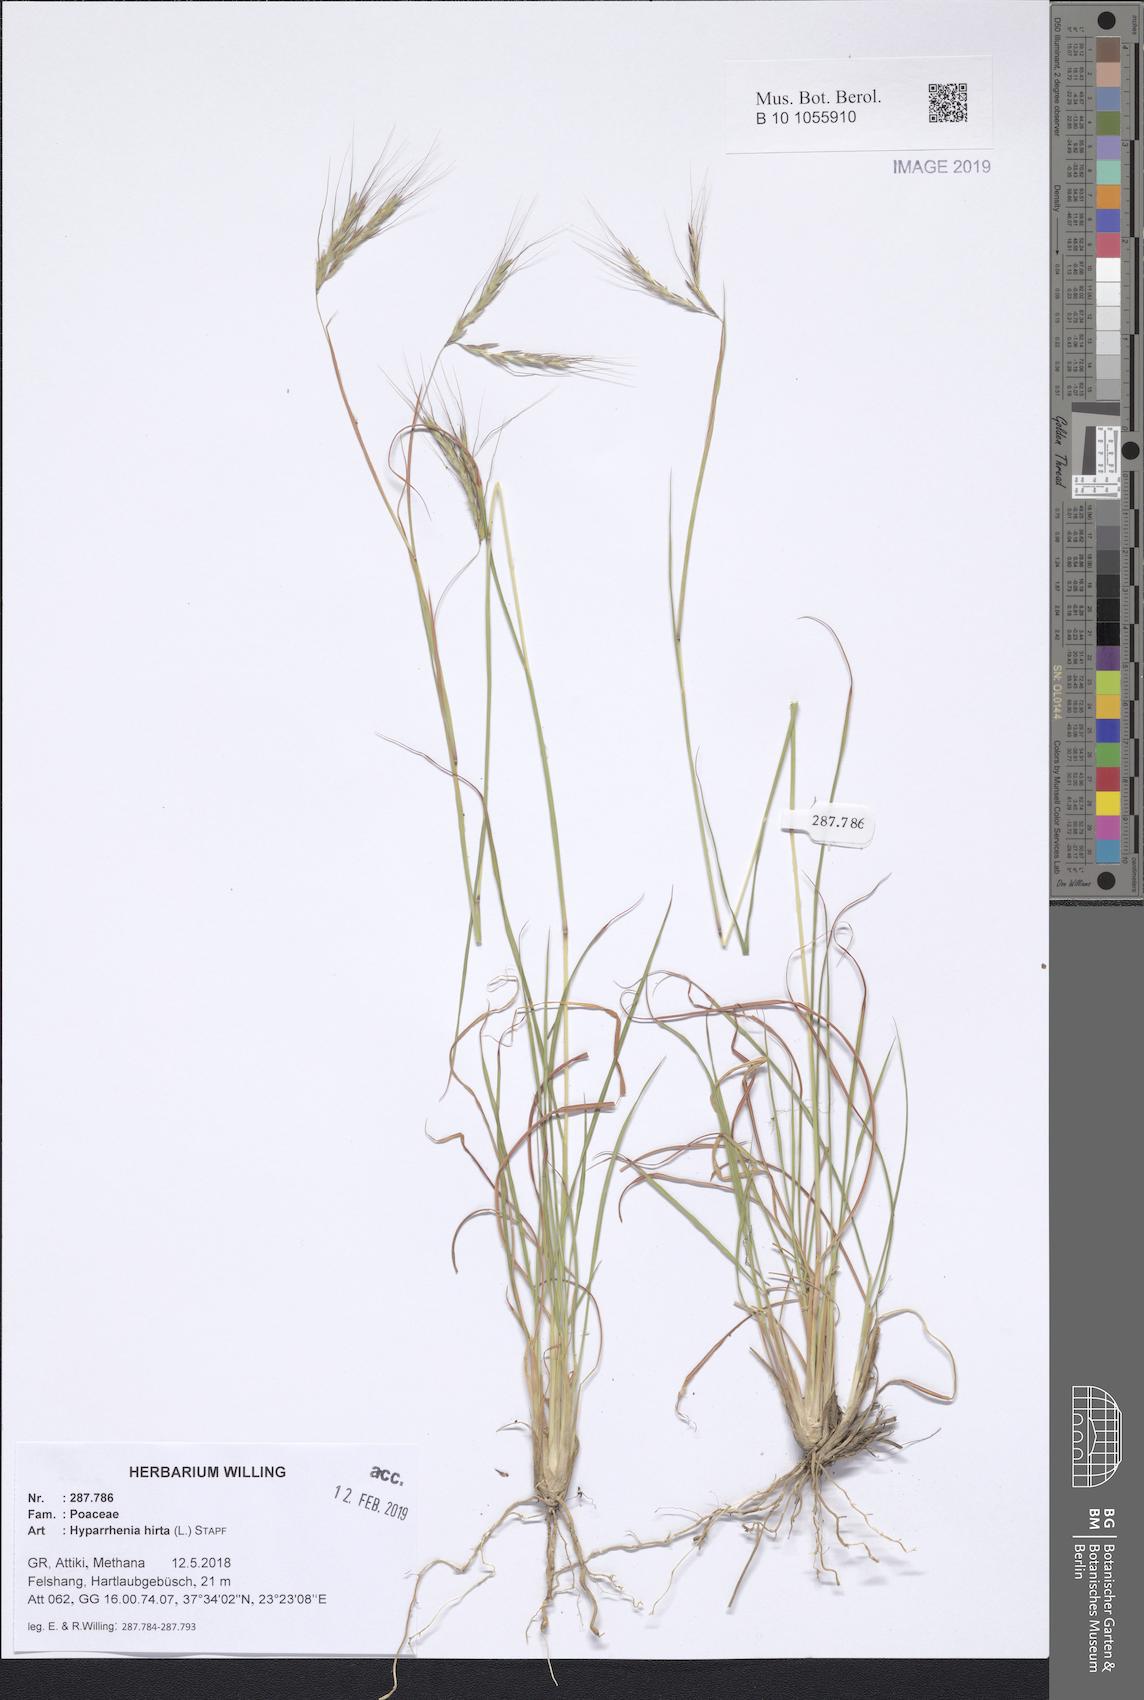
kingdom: Plantae
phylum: Tracheophyta
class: Liliopsida
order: Poales
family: Poaceae
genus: Hyparrhenia
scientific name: Hyparrhenia hirta
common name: Thatching grass
